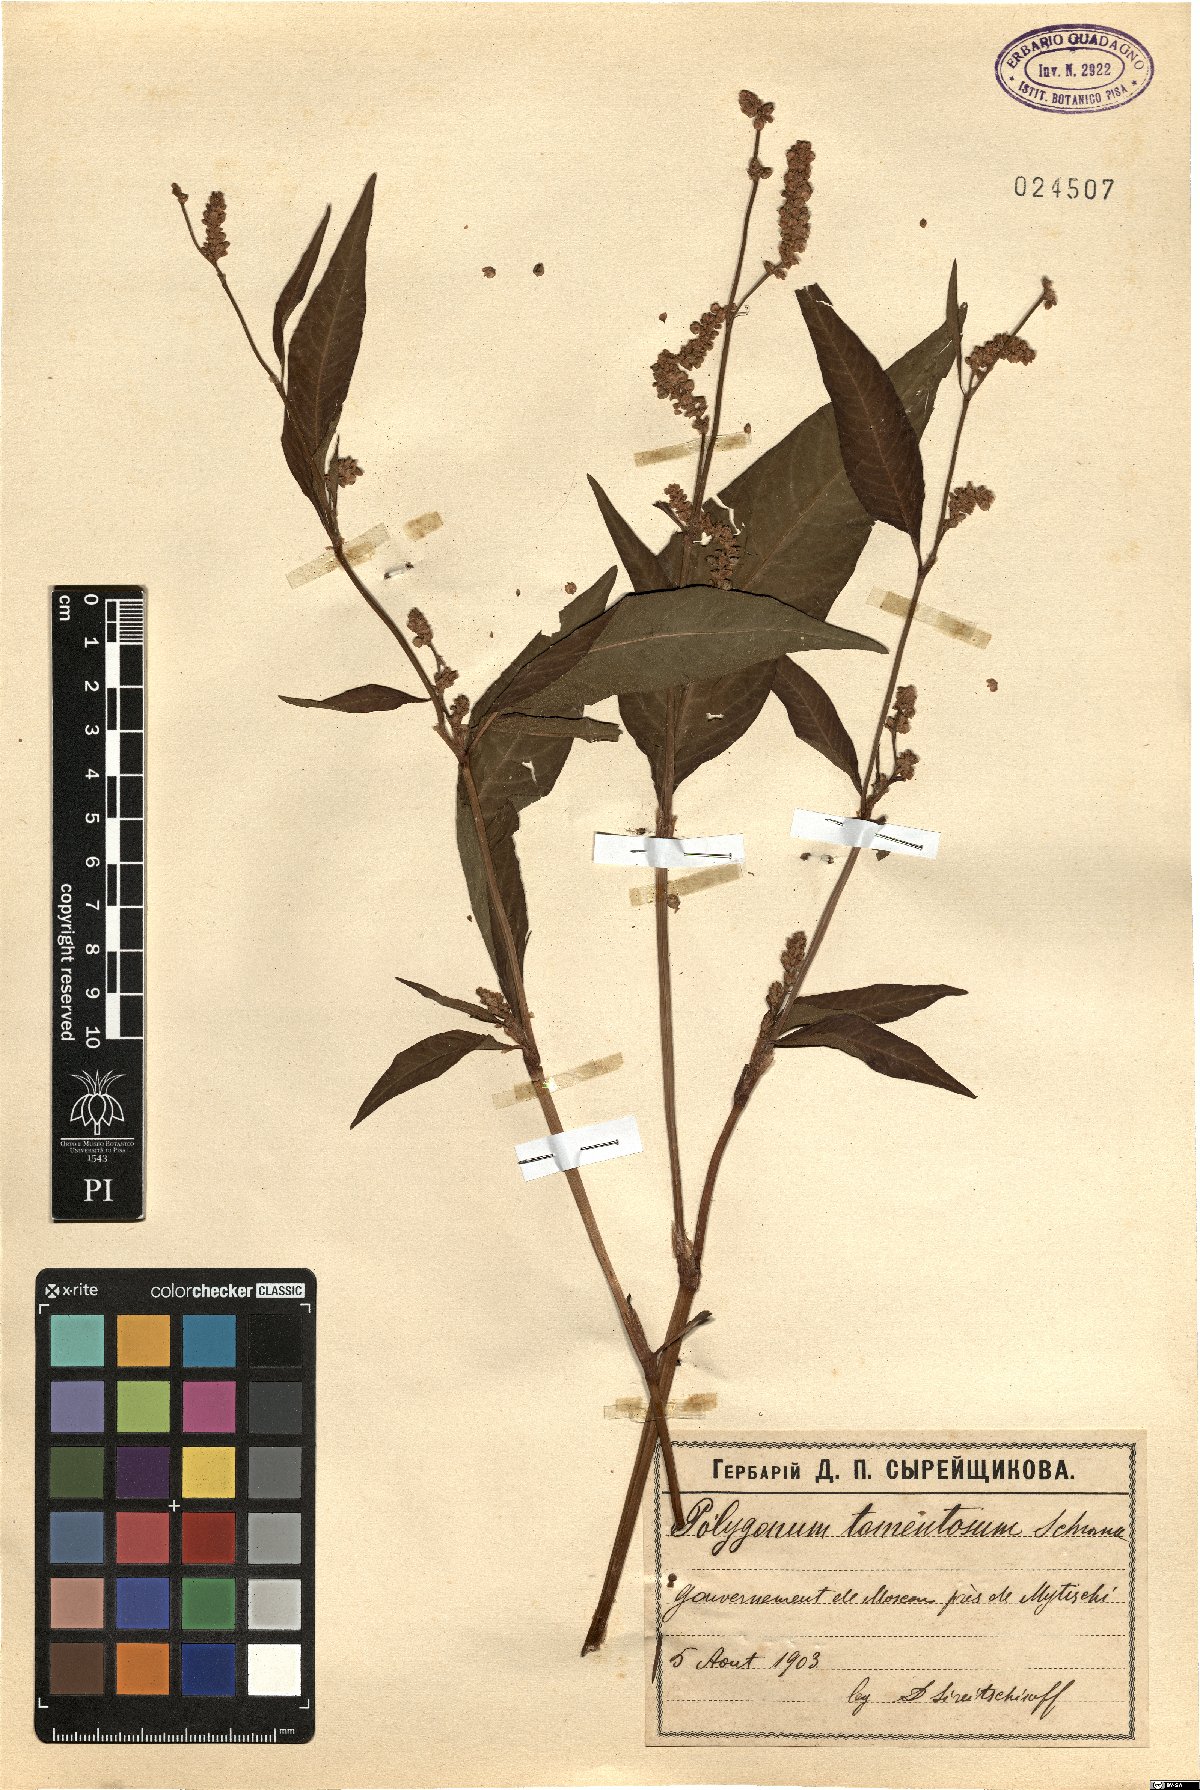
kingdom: Plantae
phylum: Tracheophyta
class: Magnoliopsida
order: Caryophyllales
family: Polygonaceae
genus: Persicaria
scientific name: Persicaria lapathifolia
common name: Curlytop knotweed
